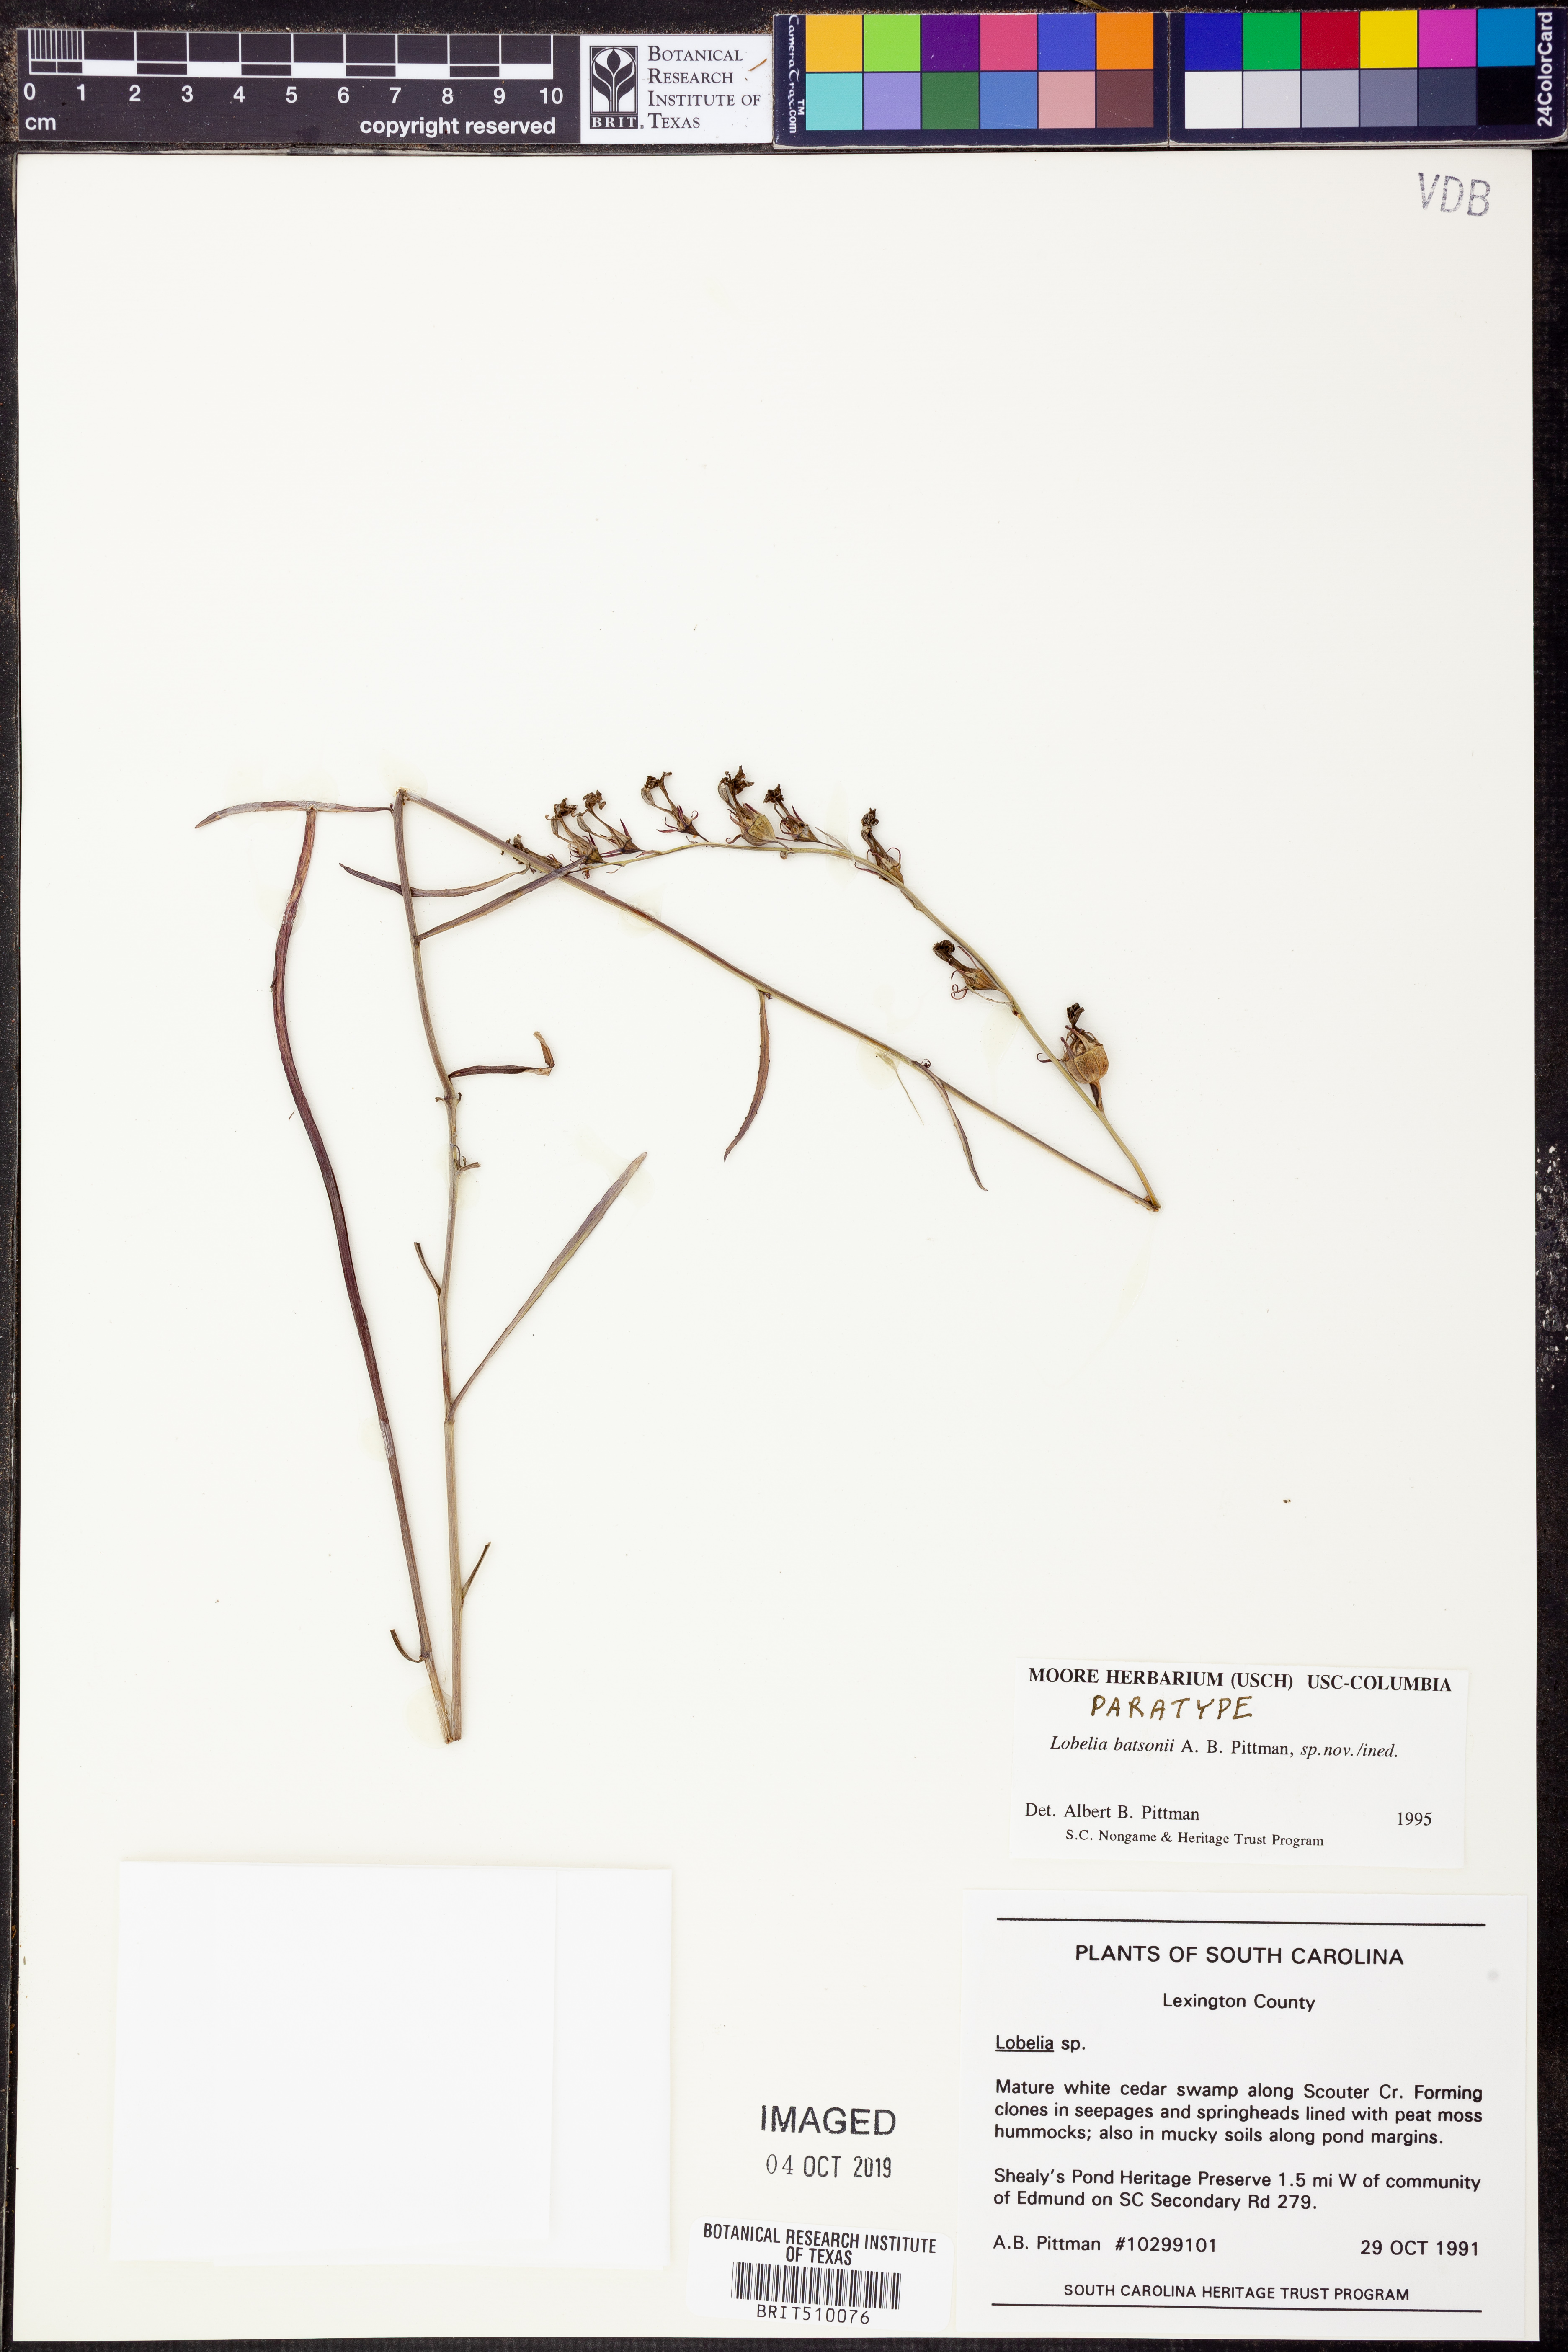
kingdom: Plantae
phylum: Tracheophyta
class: Magnoliopsida
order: Asterales
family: Campanulaceae
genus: Lobelia
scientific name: Lobelia batsonii
